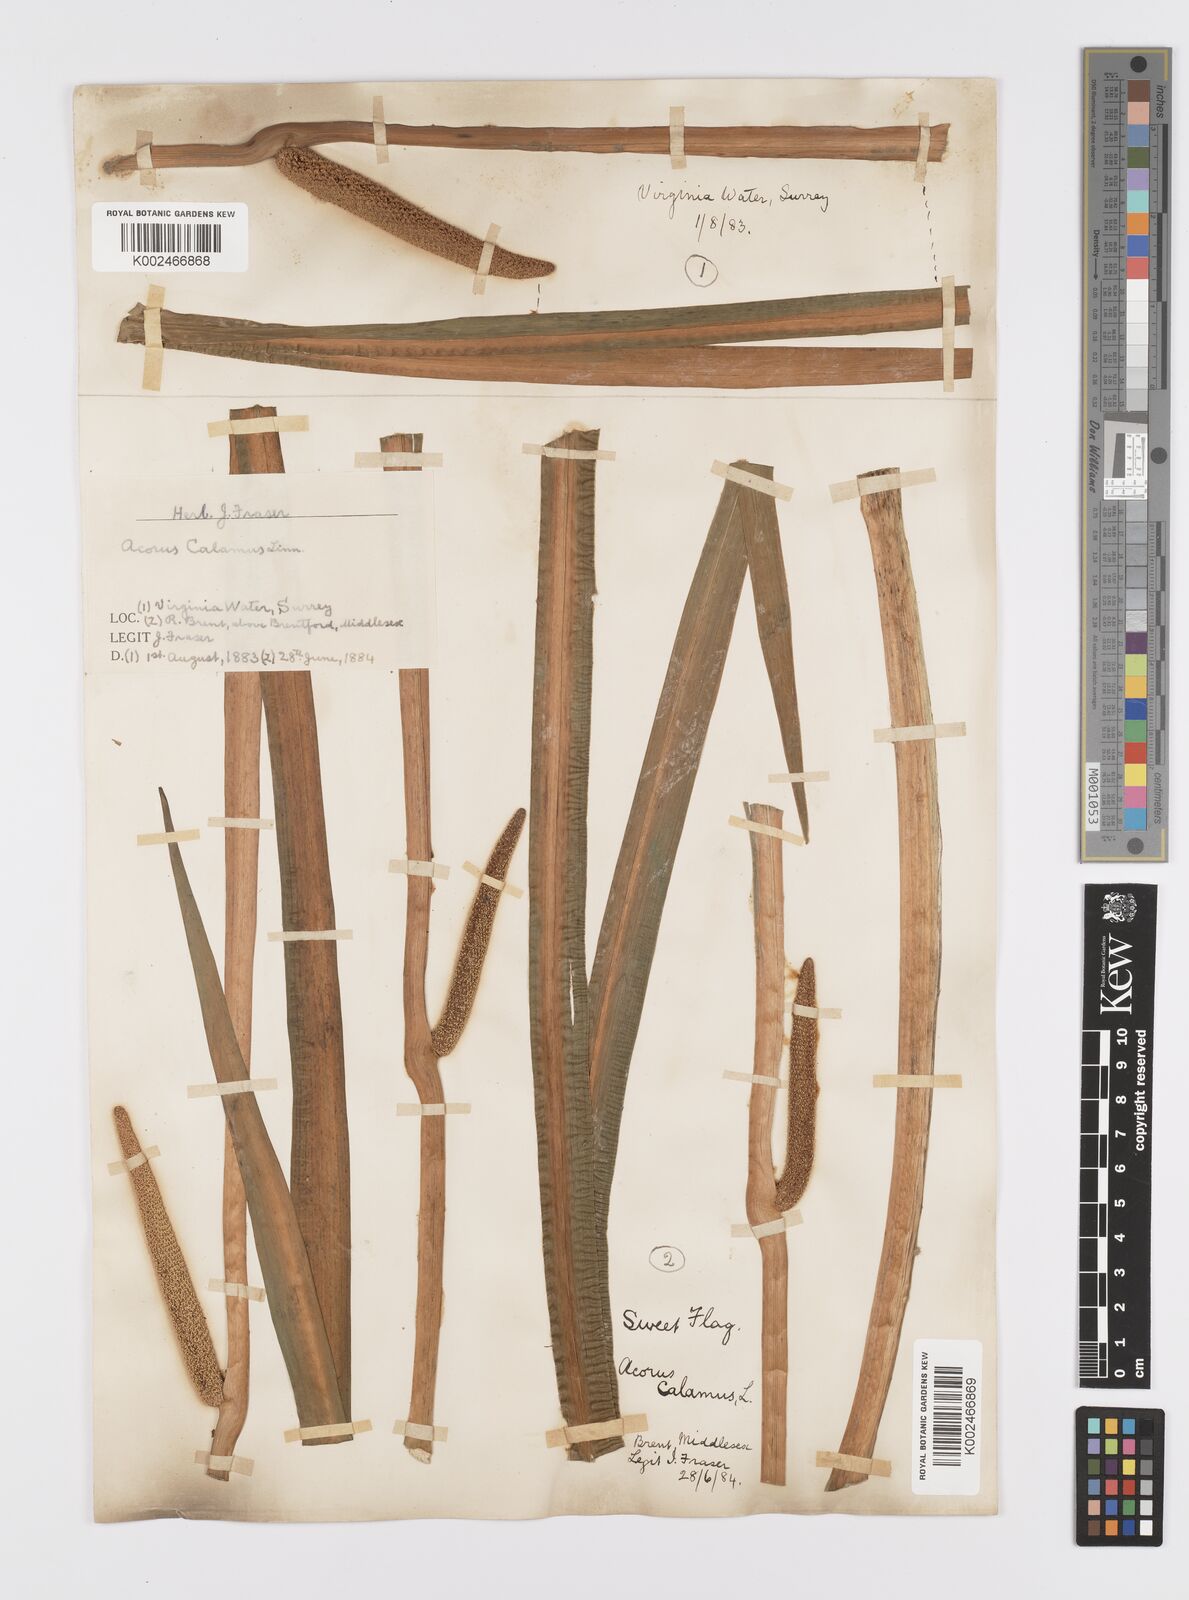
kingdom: Plantae
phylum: Tracheophyta
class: Liliopsida
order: Acorales
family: Acoraceae
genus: Acorus
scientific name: Acorus calamus
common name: Sweet-flag
